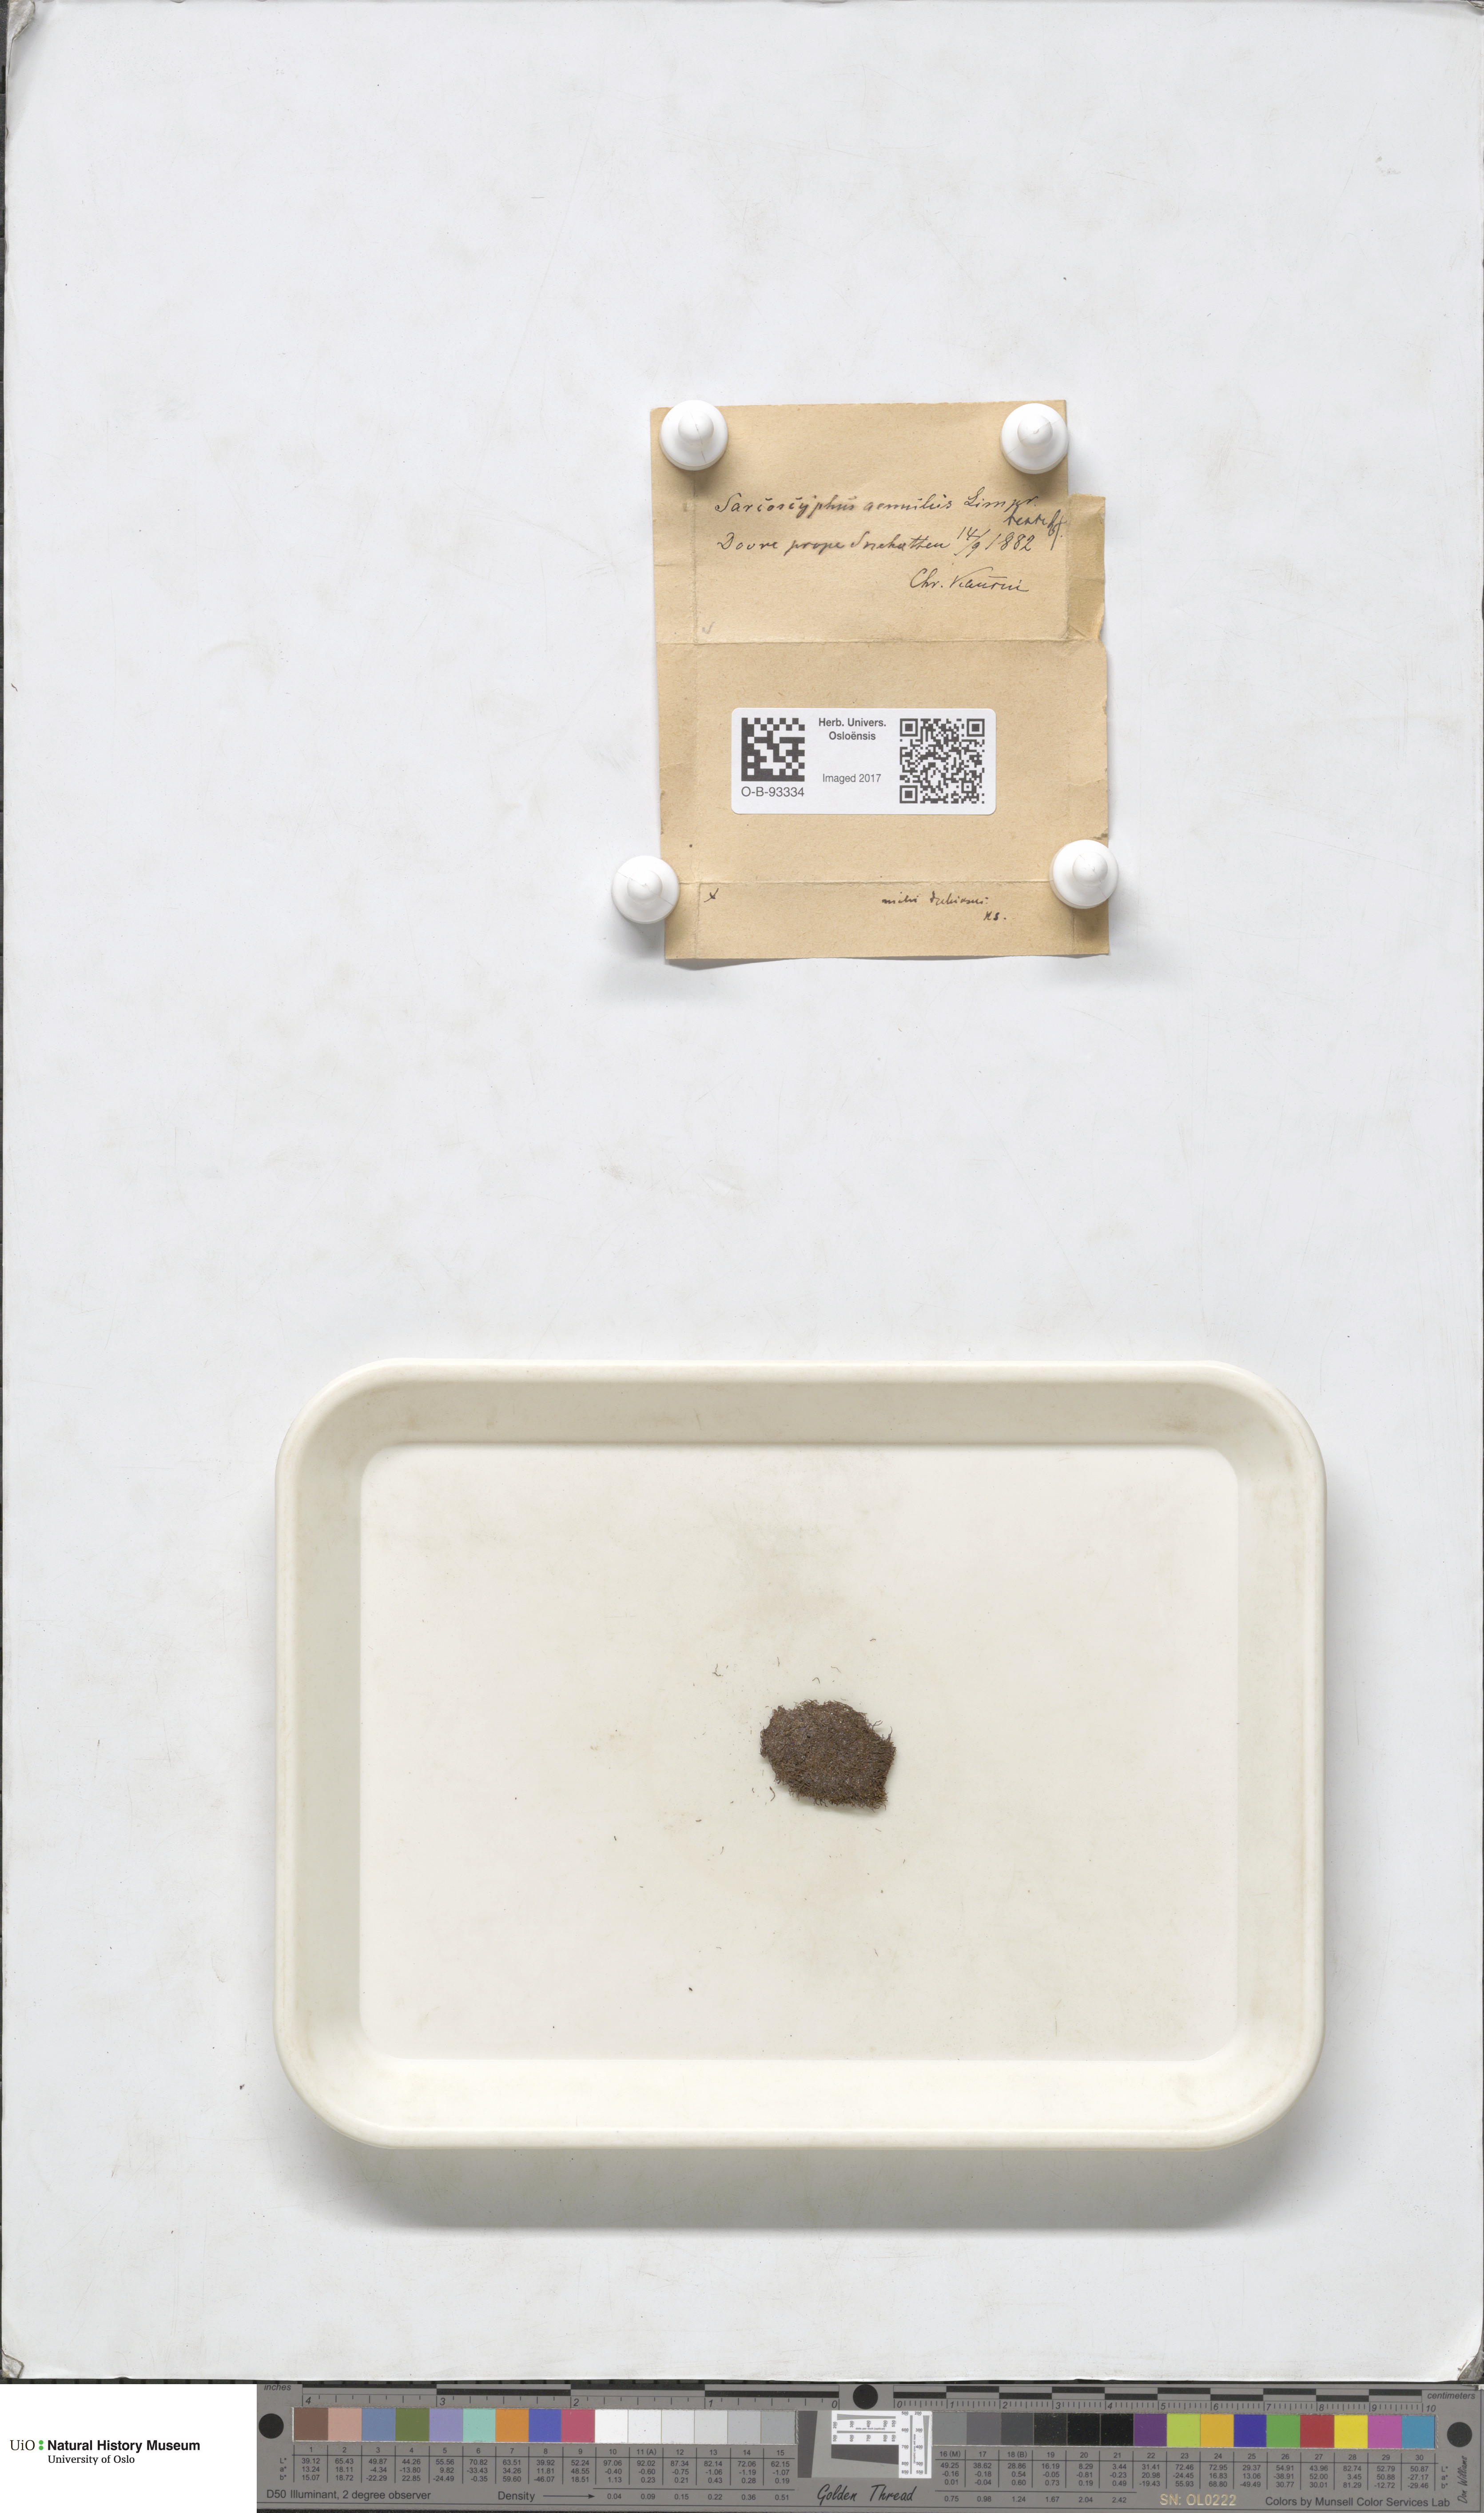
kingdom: Plantae
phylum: Marchantiophyta
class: Jungermanniopsida
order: Jungermanniales
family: Gymnomitriaceae
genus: Gymnomitrion
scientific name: Gymnomitrion brevissimum
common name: Snow rustwort
